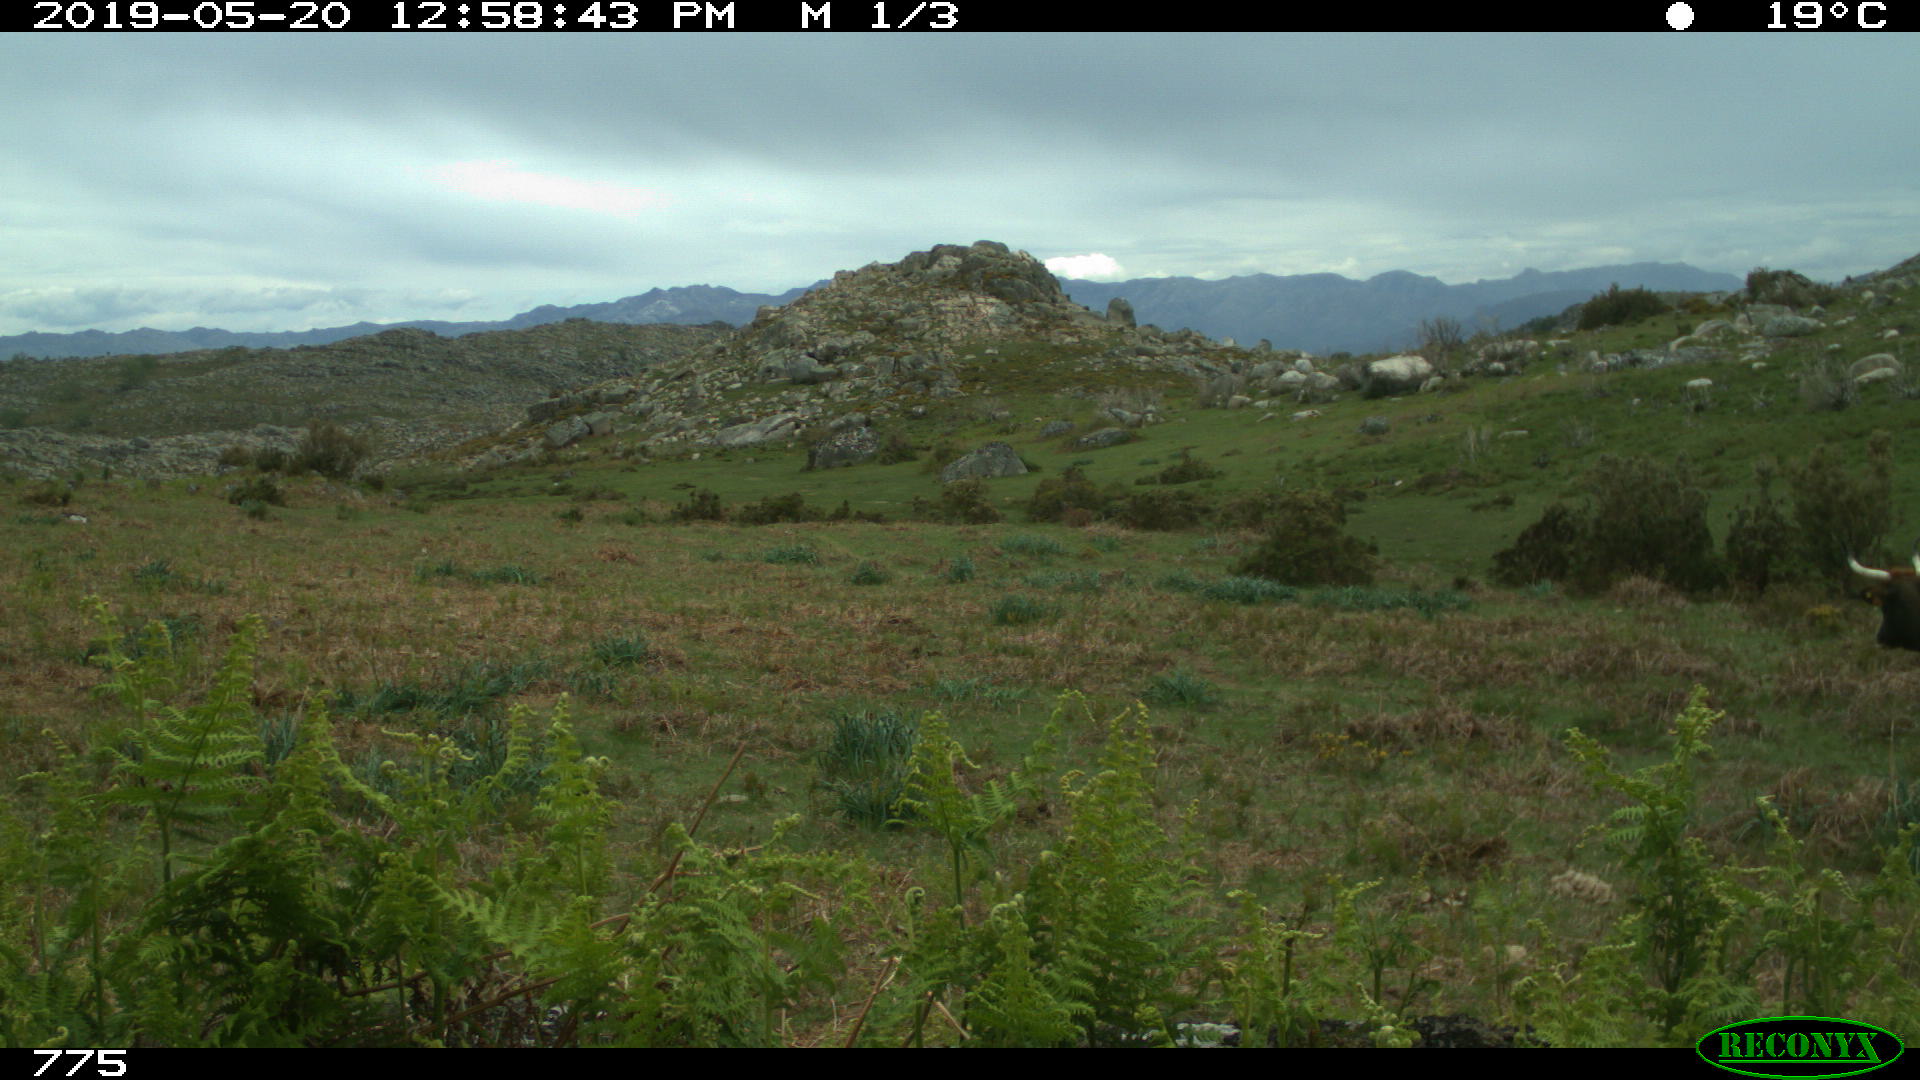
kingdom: Animalia
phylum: Chordata
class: Mammalia
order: Artiodactyla
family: Bovidae
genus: Bos
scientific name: Bos taurus
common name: Domesticated cattle
